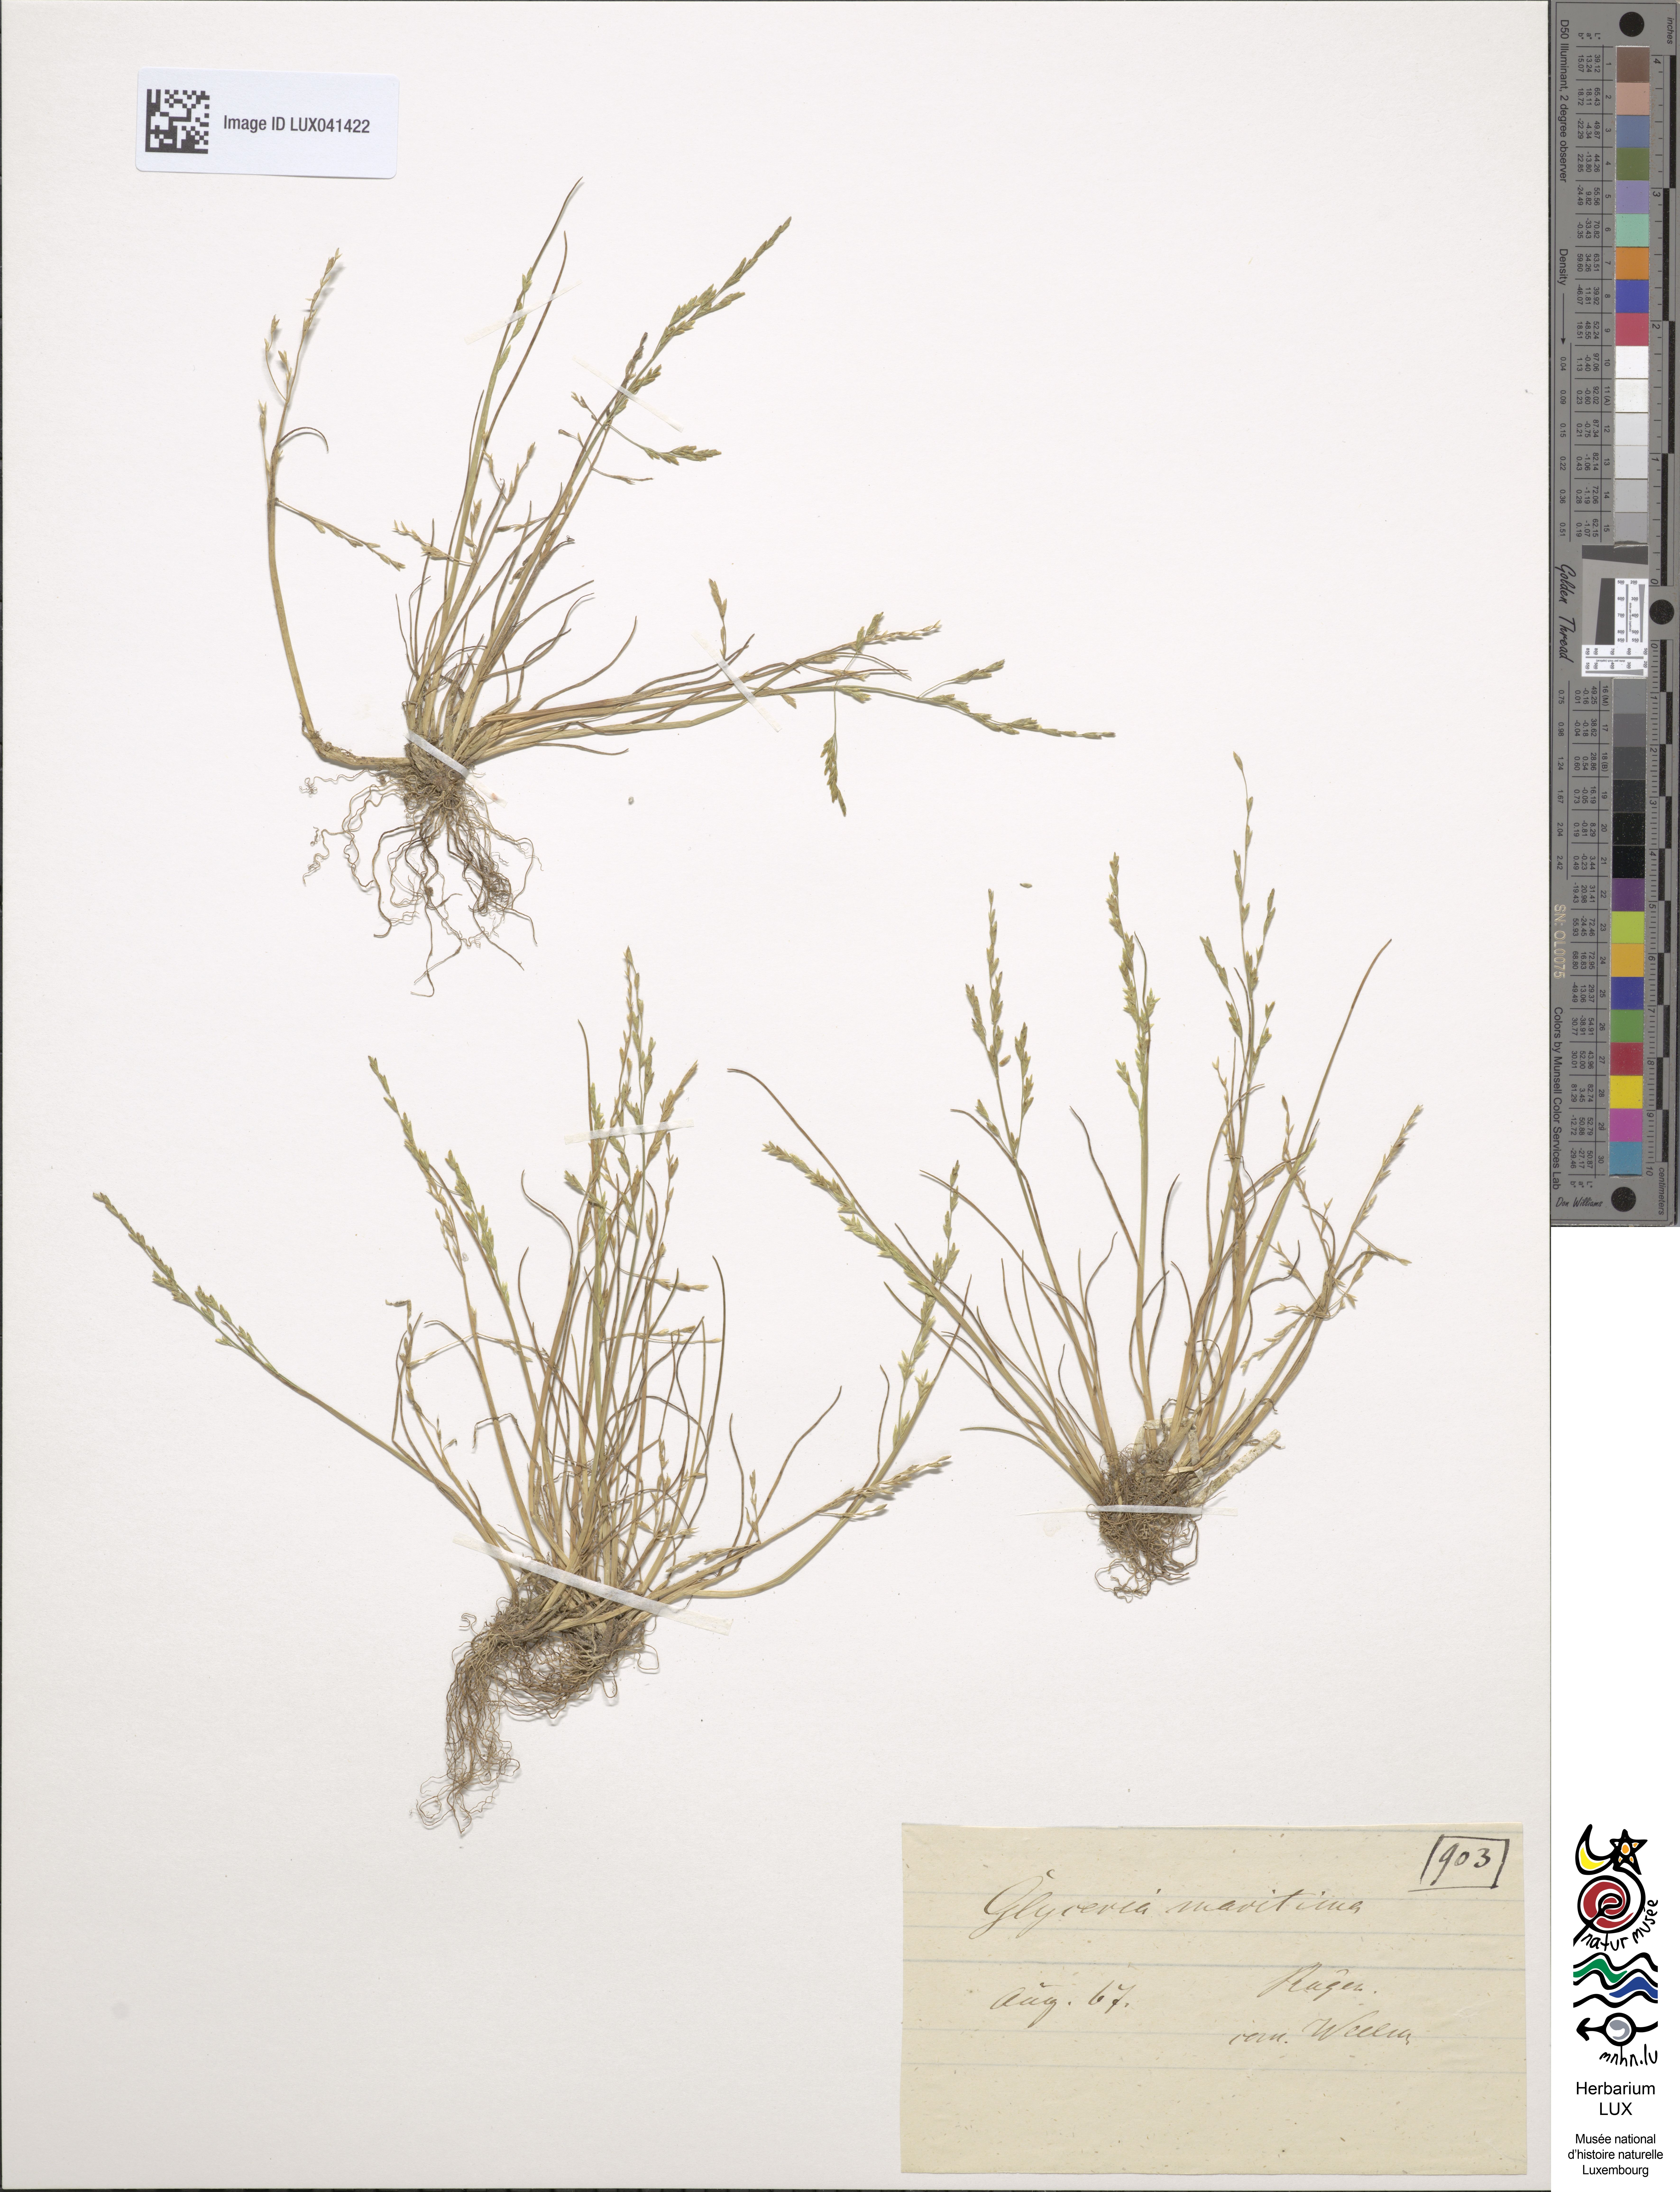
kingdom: Plantae
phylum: Tracheophyta
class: Liliopsida
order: Poales
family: Poaceae
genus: Puccinellia
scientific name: Puccinellia maritima
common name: Common saltmarsh grass
